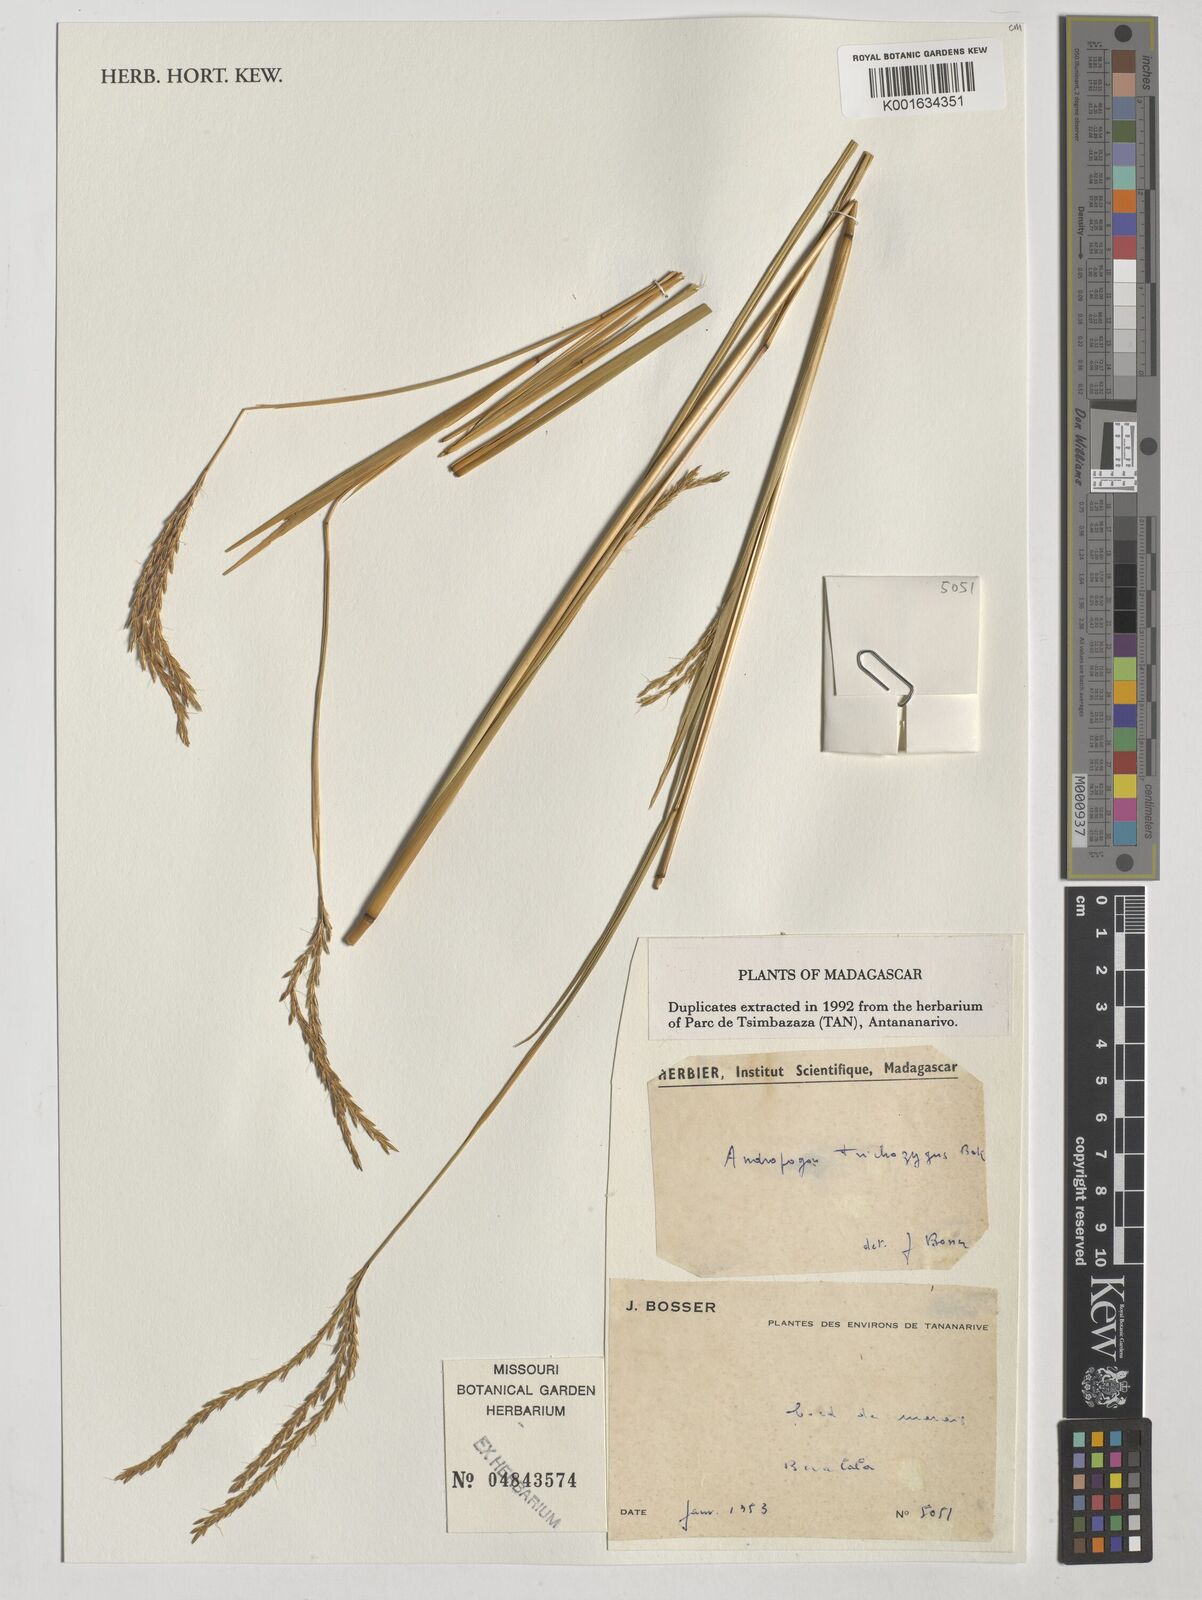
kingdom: Plantae
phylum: Tracheophyta
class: Liliopsida
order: Poales
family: Poaceae
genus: Andropogon
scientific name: Andropogon trichozygus
